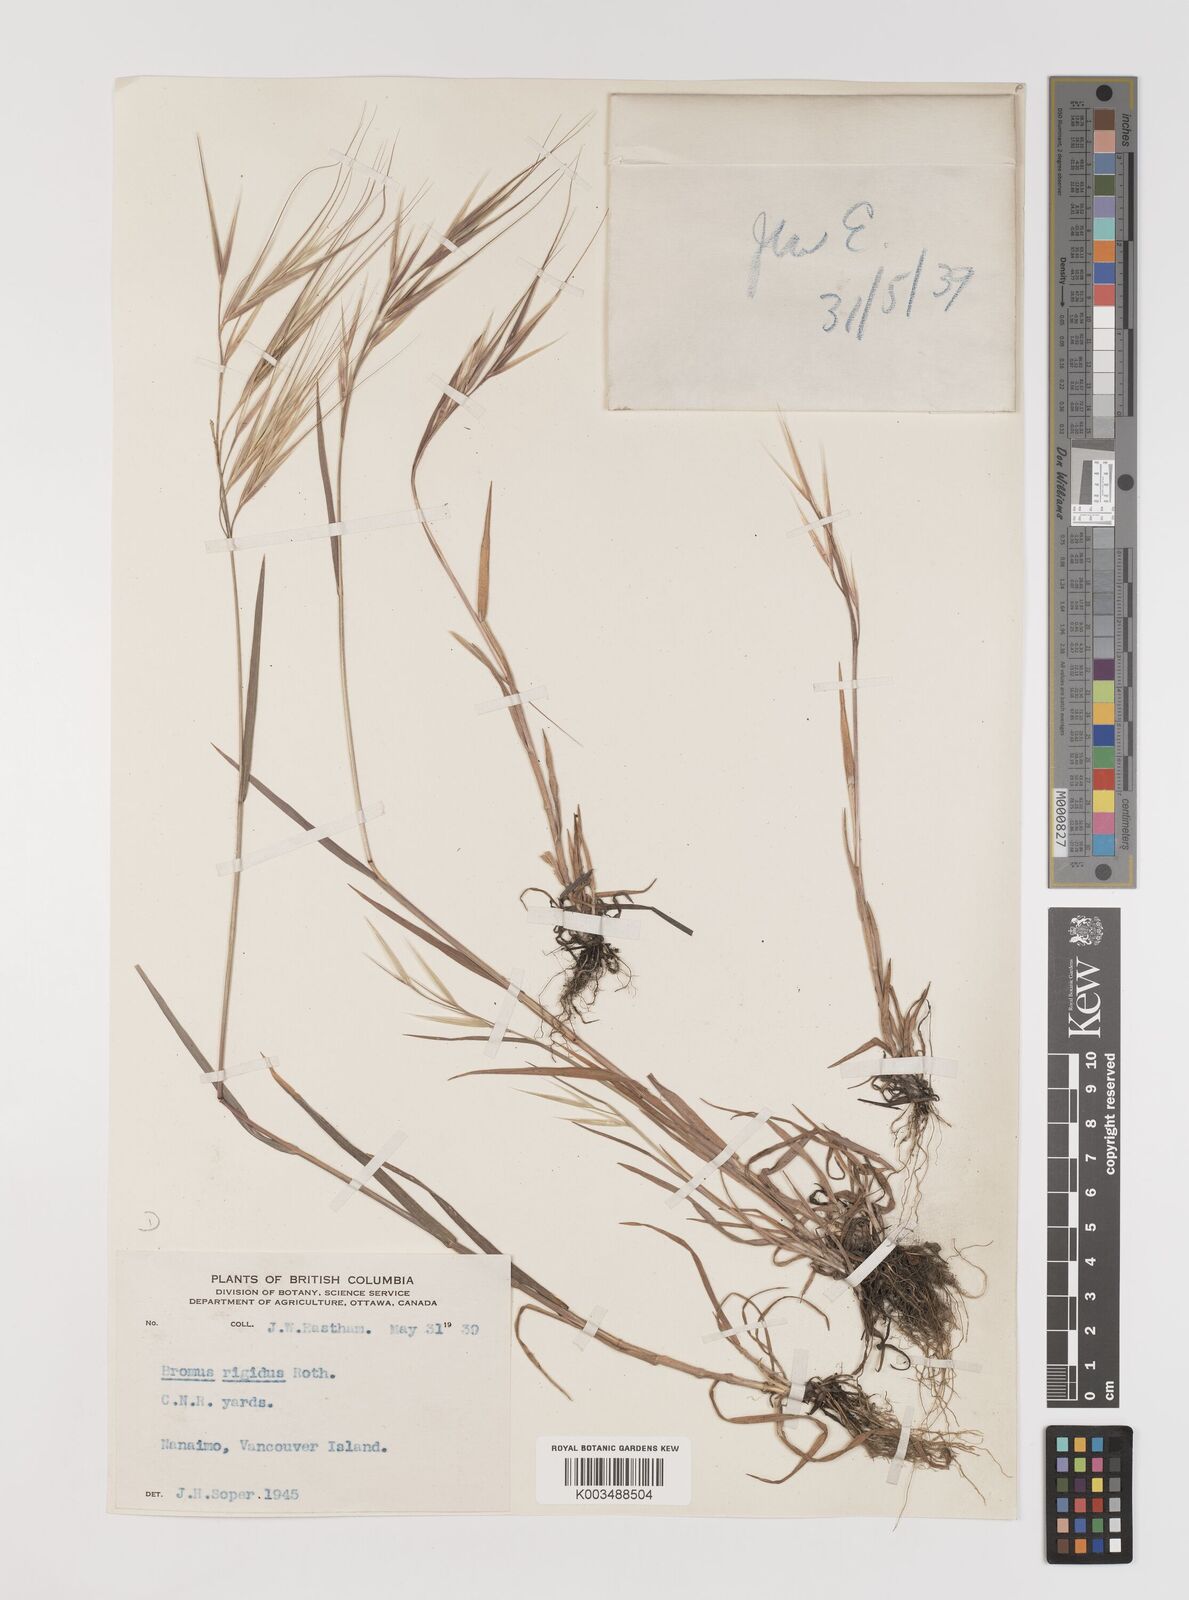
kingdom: Plantae
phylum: Tracheophyta
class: Liliopsida
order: Poales
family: Poaceae
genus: Bromus
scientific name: Bromus diandrus
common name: Ripgut brome
